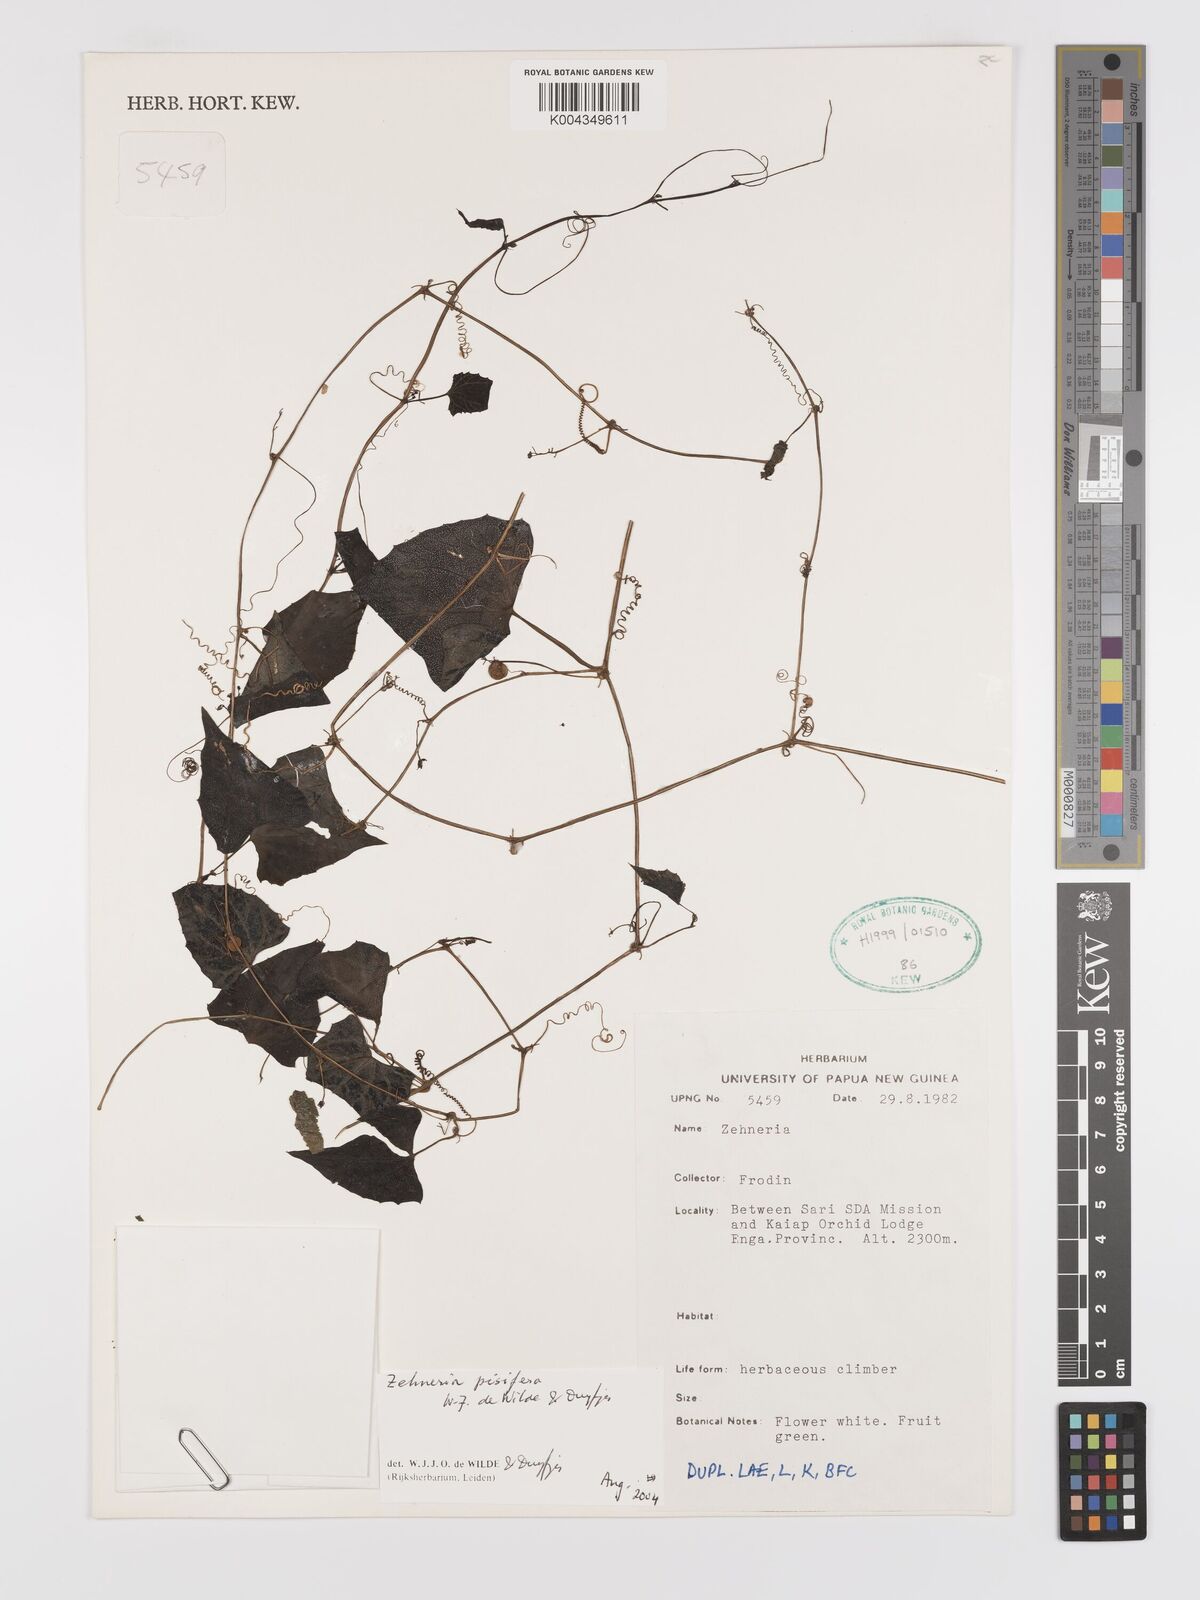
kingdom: Plantae
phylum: Tracheophyta
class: Magnoliopsida
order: Cucurbitales
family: Cucurbitaceae
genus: Zehneria
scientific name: Zehneria pisifera
